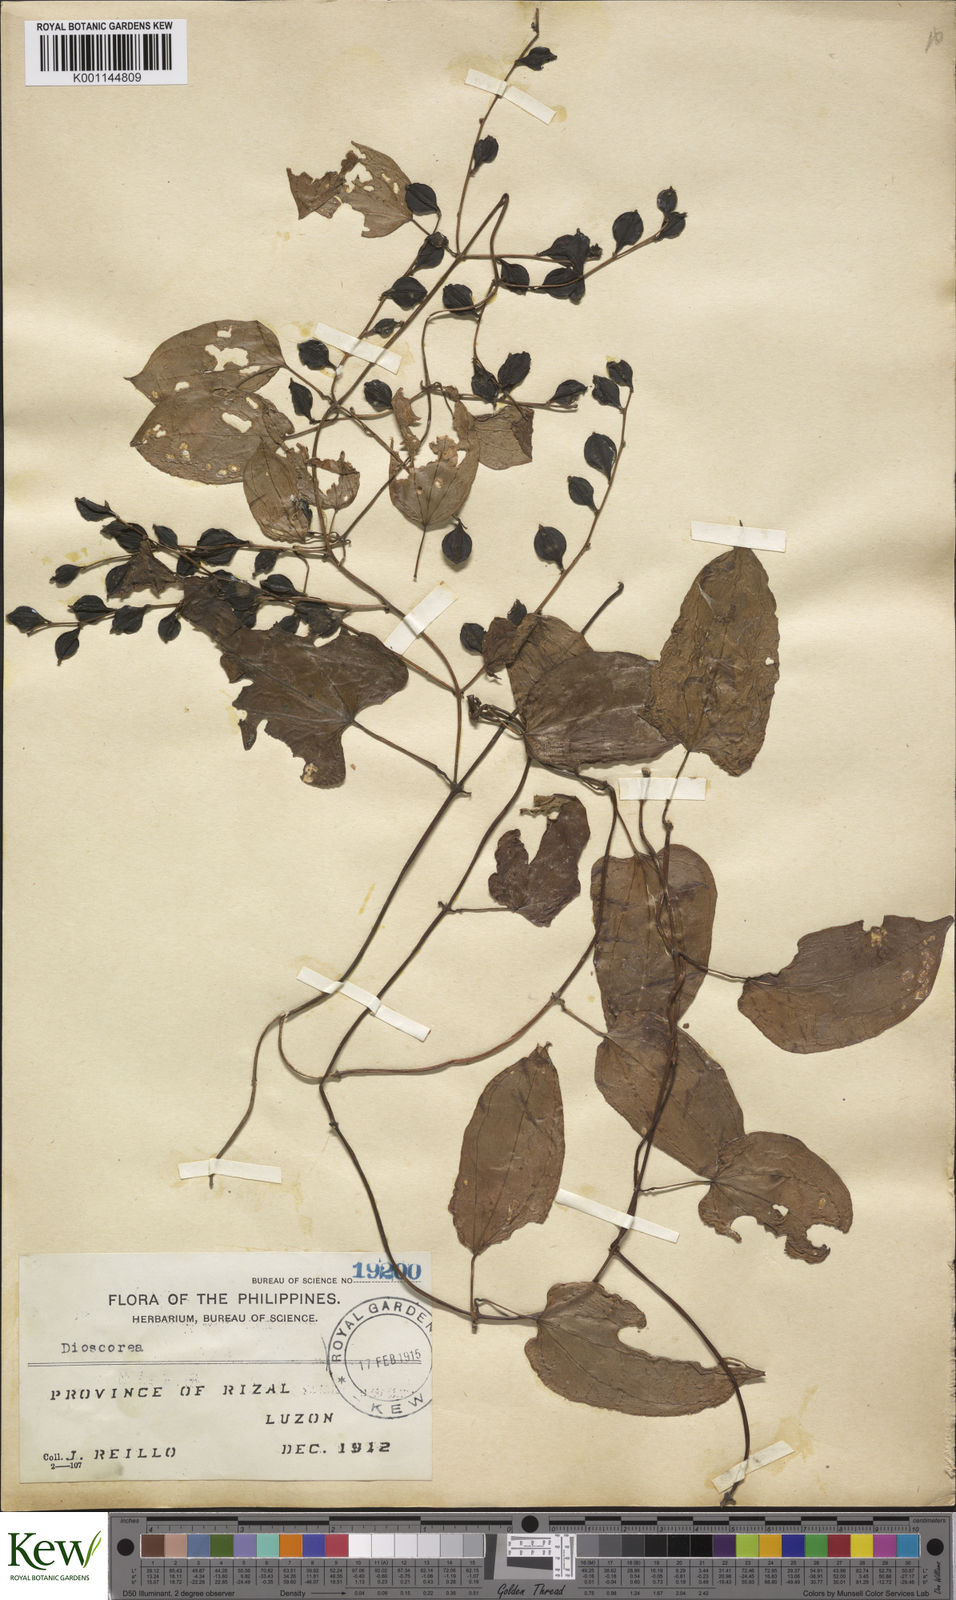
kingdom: Plantae
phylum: Tracheophyta
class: Liliopsida
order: Dioscoreales
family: Dioscoreaceae
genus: Dioscorea
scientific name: Dioscorea filiformis
